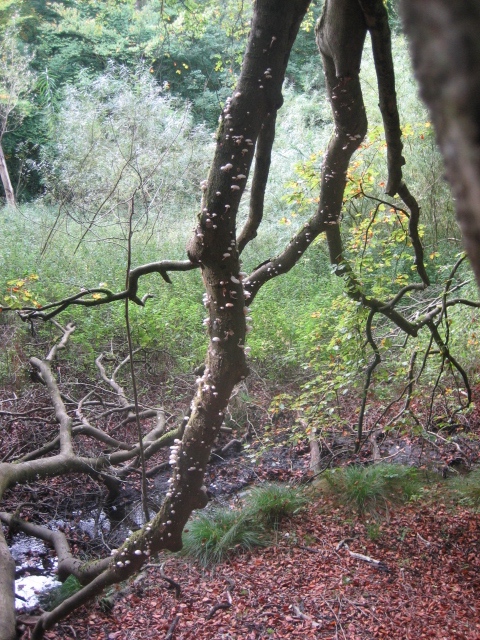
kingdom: Fungi
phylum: Basidiomycota
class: Agaricomycetes
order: Agaricales
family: Physalacriaceae
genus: Mucidula
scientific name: Mucidula mucida
